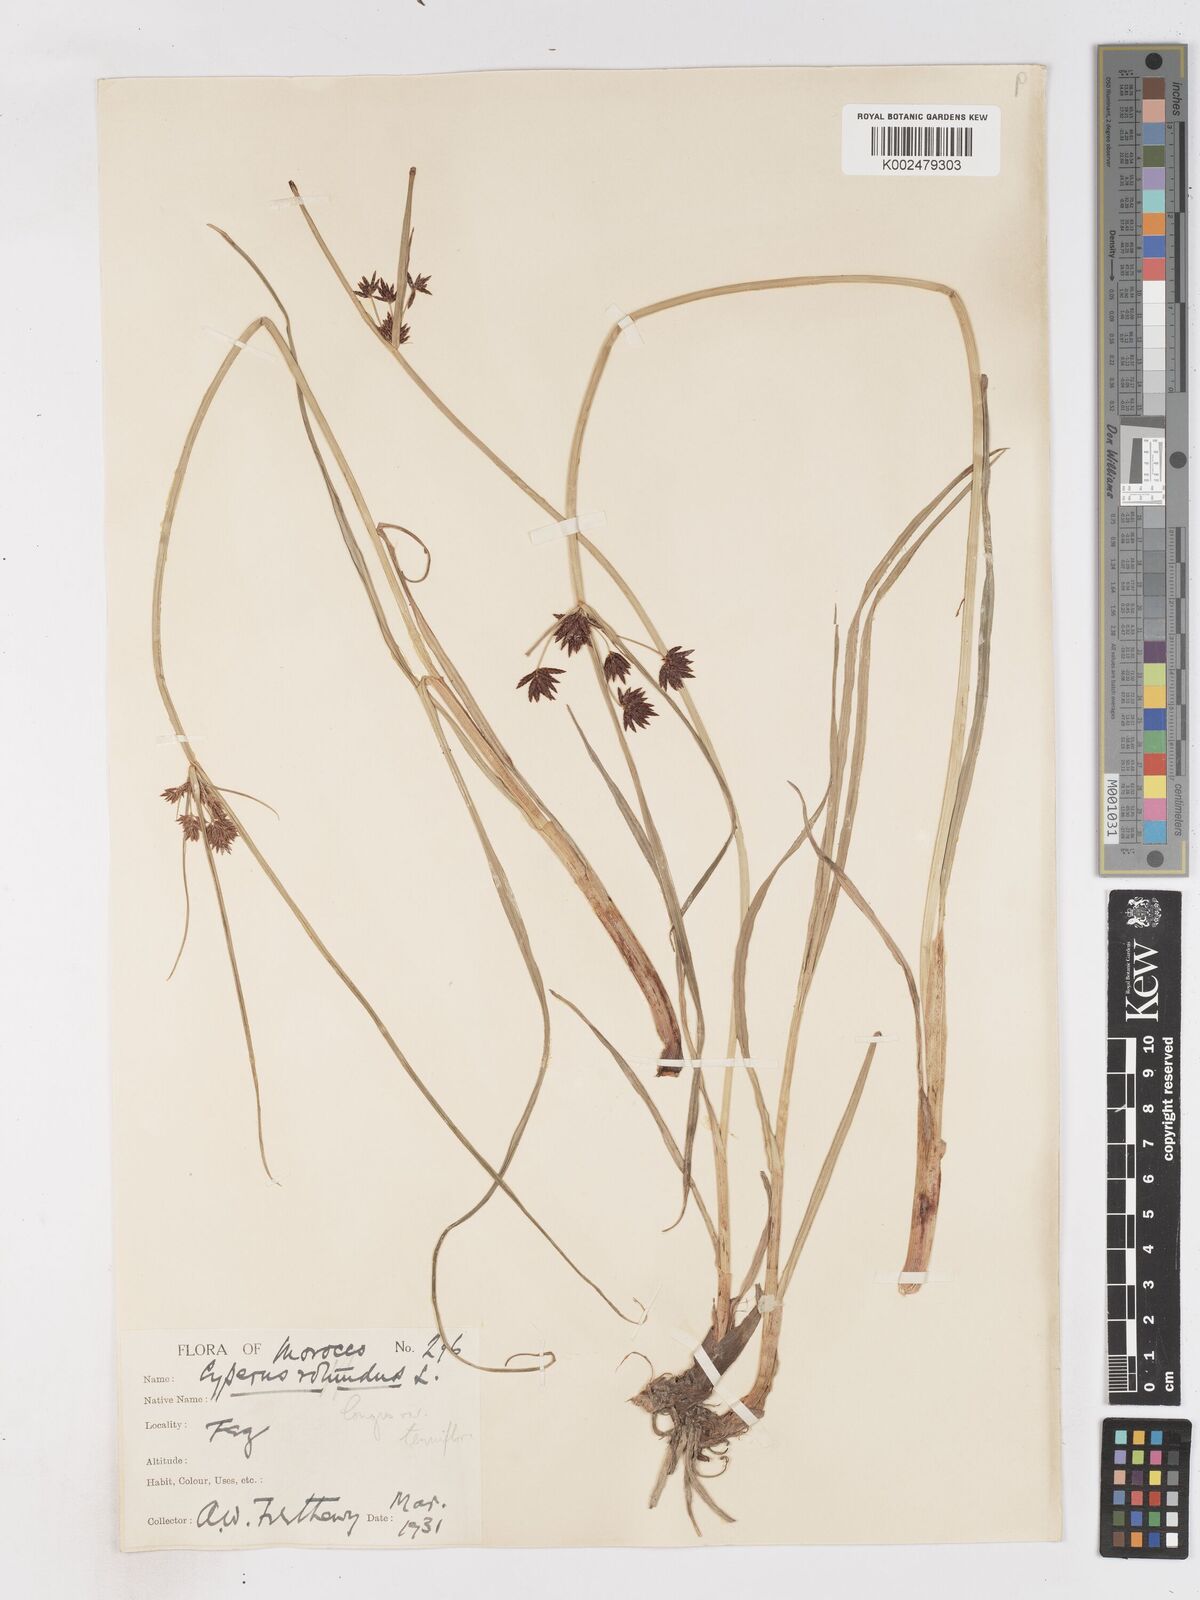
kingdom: Plantae
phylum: Tracheophyta
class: Liliopsida
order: Poales
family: Cyperaceae
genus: Cyperus
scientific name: Cyperus longus
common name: Galingale
